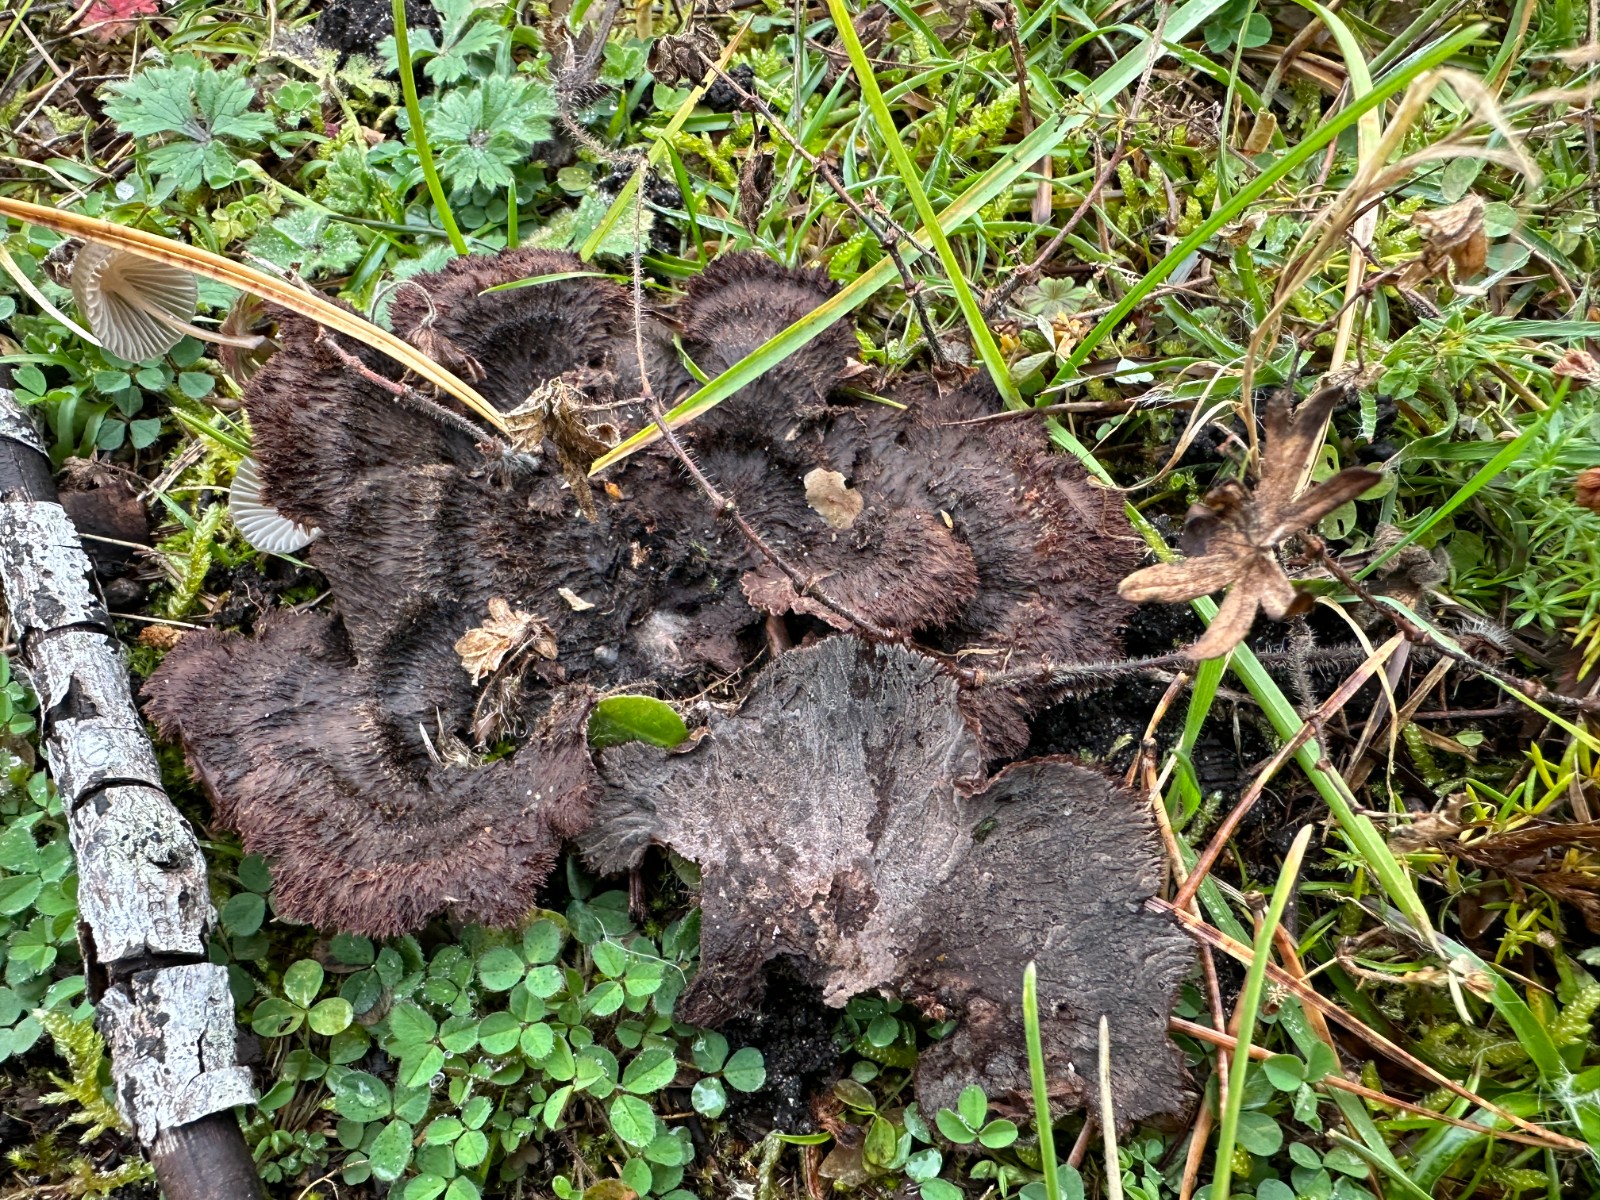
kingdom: Fungi
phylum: Basidiomycota
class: Agaricomycetes
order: Thelephorales
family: Thelephoraceae
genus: Thelephora
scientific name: Thelephora terrestris
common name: fliget frynsesvamp
